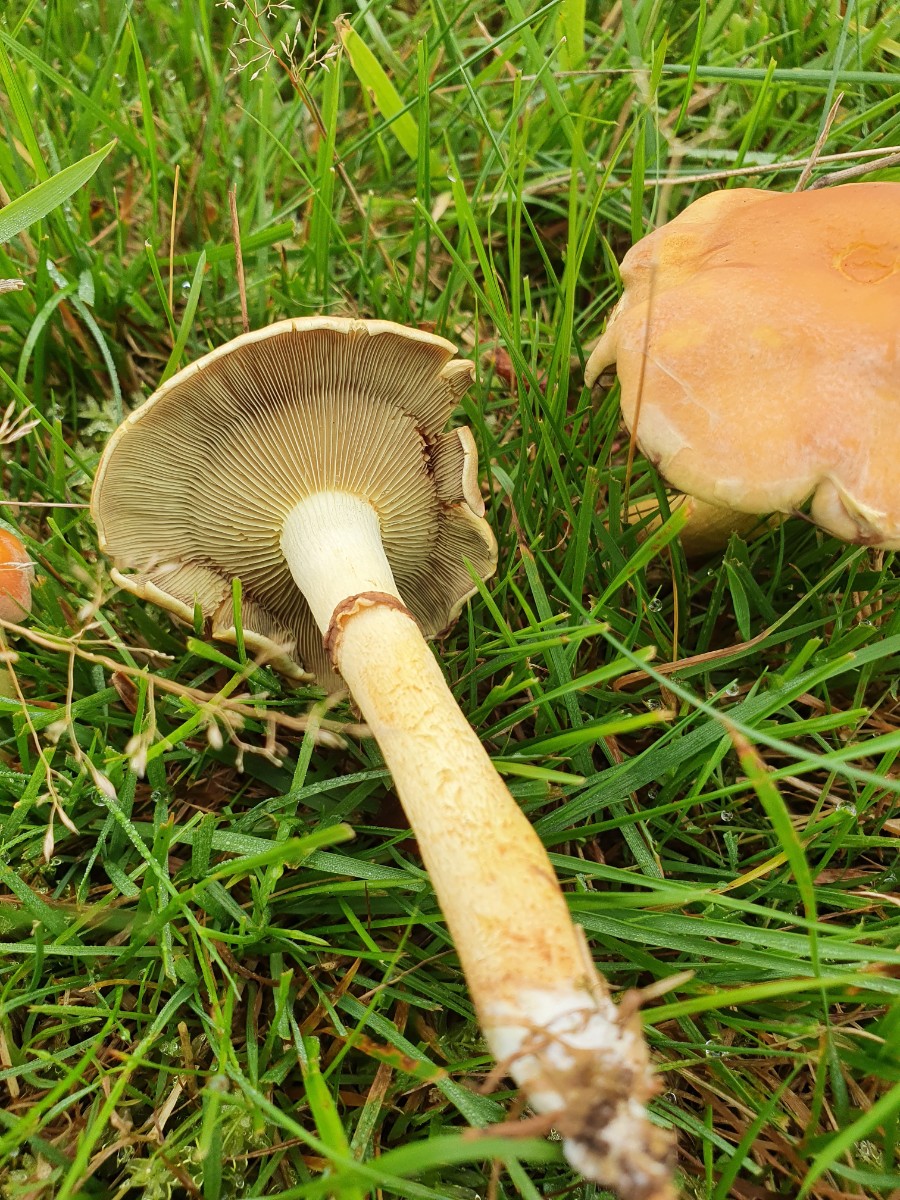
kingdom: Fungi
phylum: Basidiomycota
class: Agaricomycetes
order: Agaricales
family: Strophariaceae
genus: Hypholoma
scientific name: Hypholoma fasciculare
